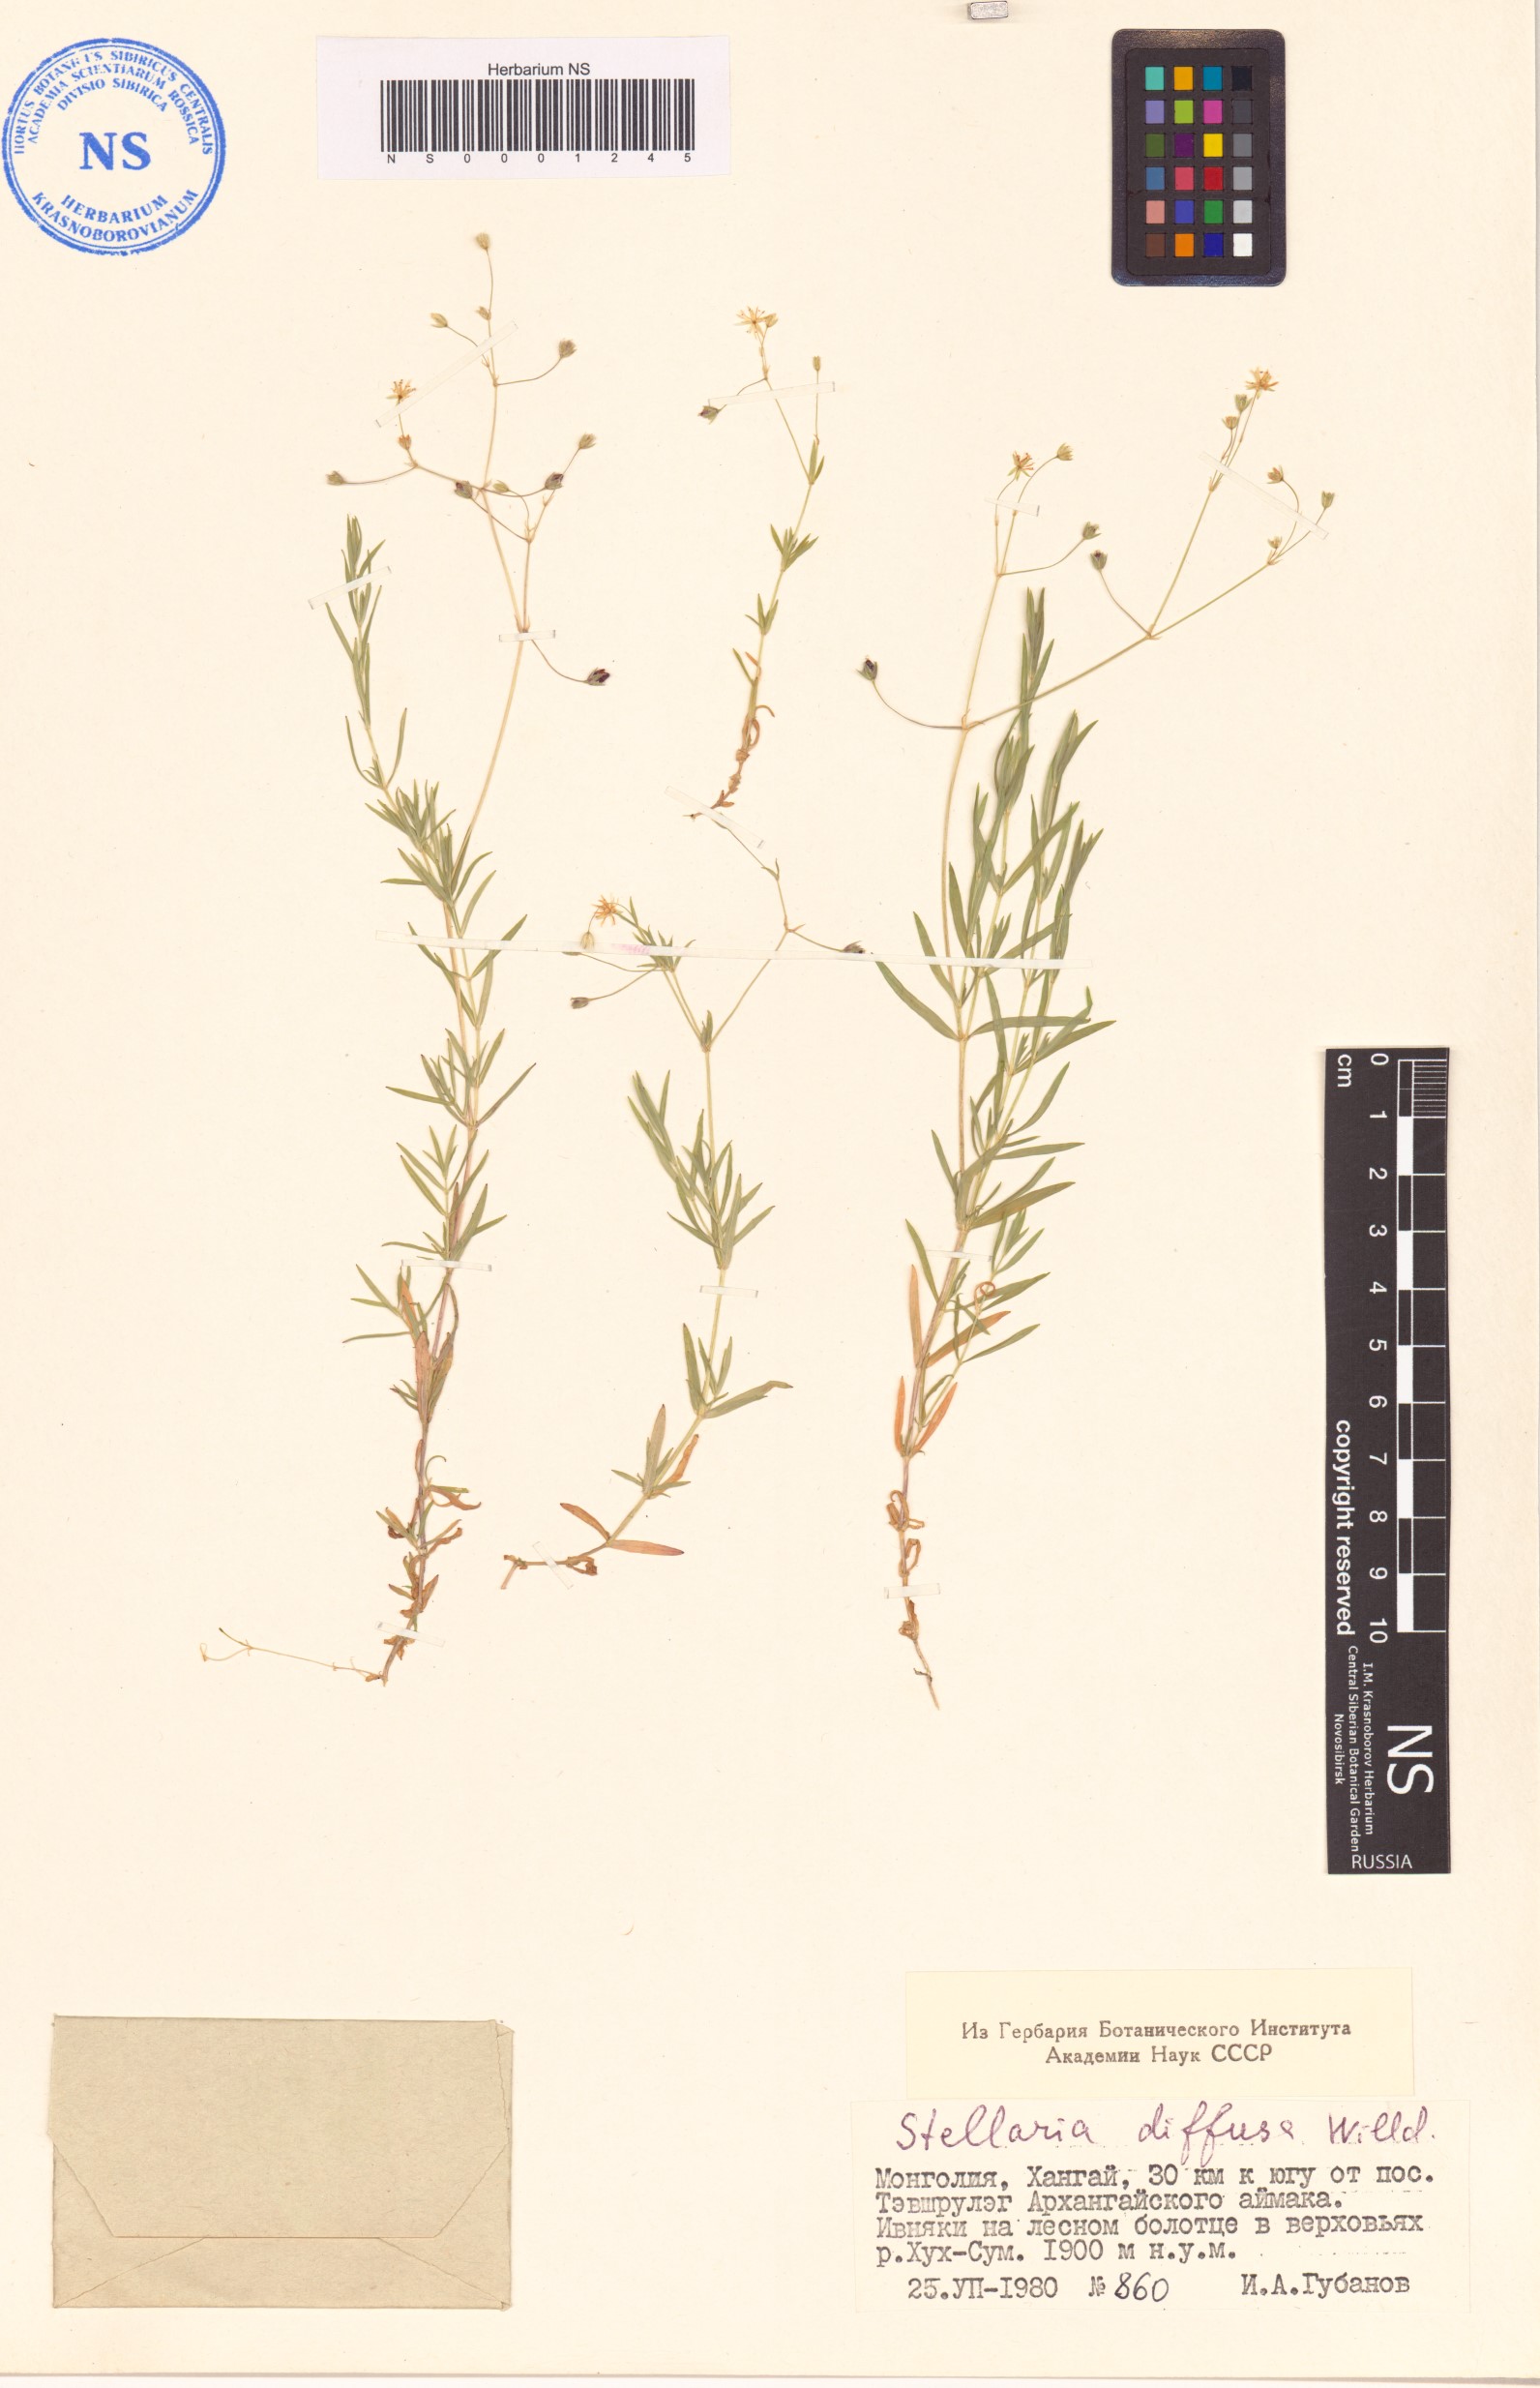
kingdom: Plantae
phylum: Tracheophyta
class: Magnoliopsida
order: Caryophyllales
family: Caryophyllaceae
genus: Stellaria
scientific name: Stellaria longifolia
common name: Long-leaved chickweed
